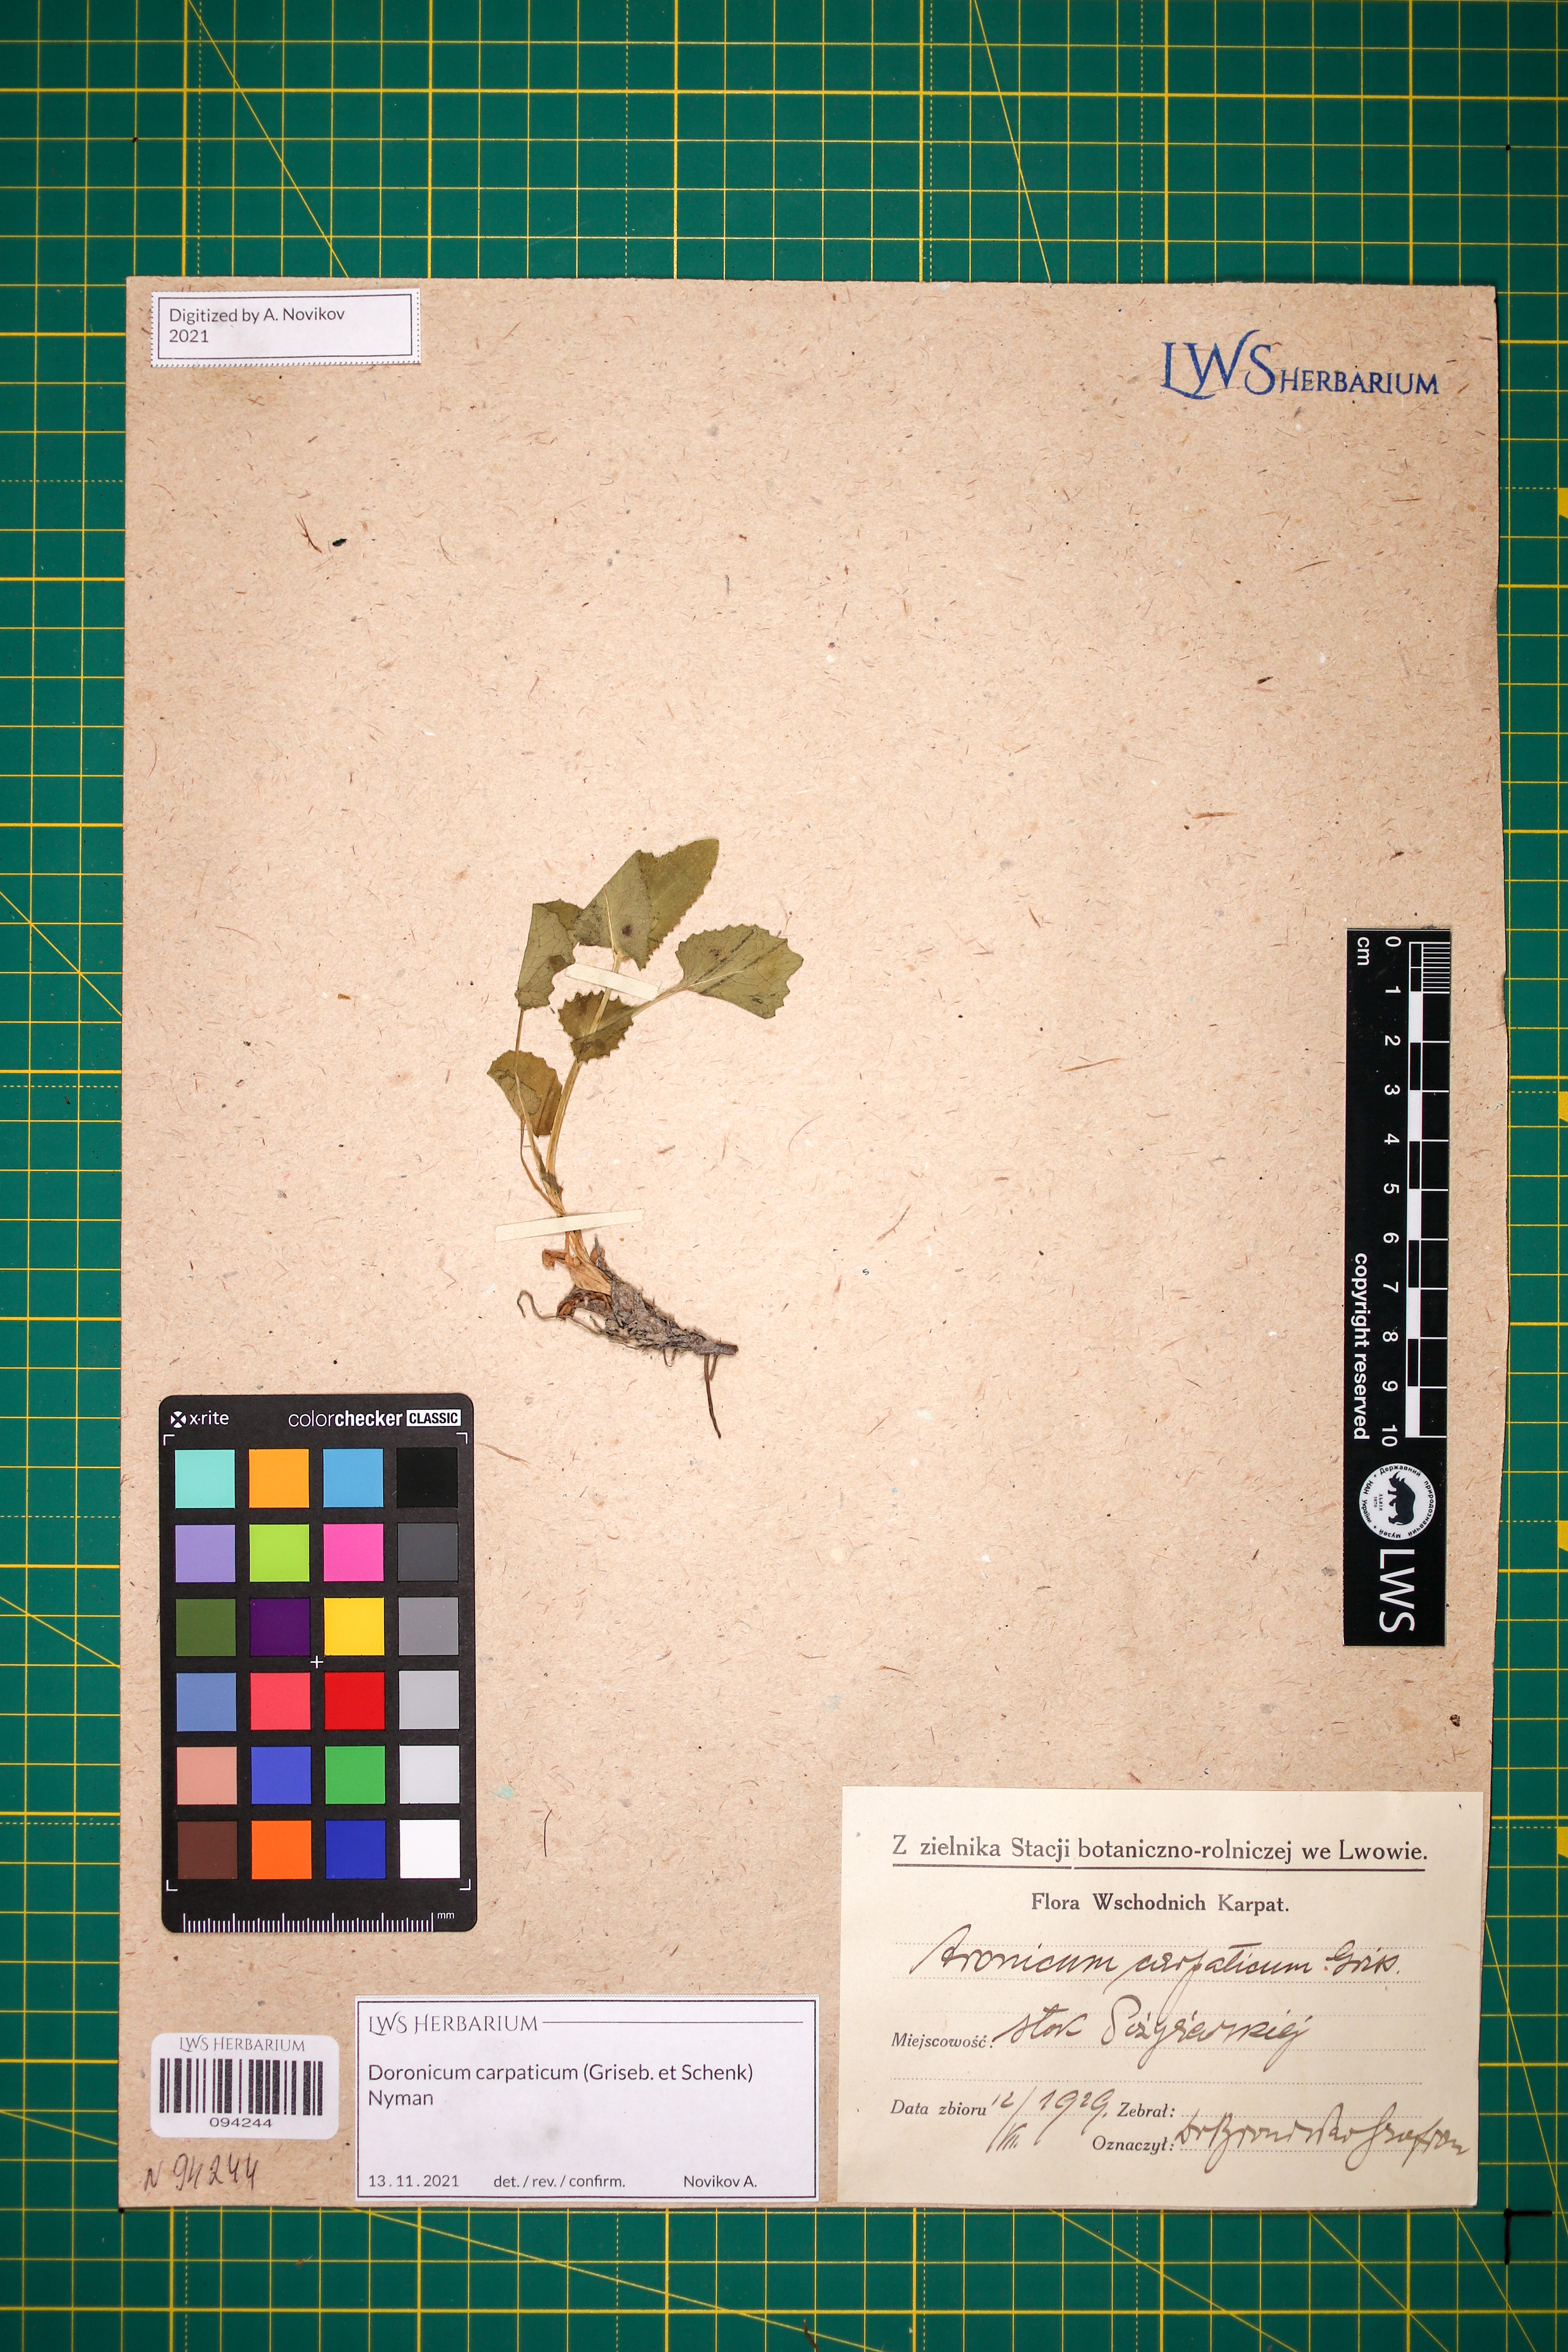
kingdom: Plantae
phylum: Tracheophyta
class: Magnoliopsida
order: Asterales
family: Asteraceae
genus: Doronicum
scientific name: Doronicum carpaticum
